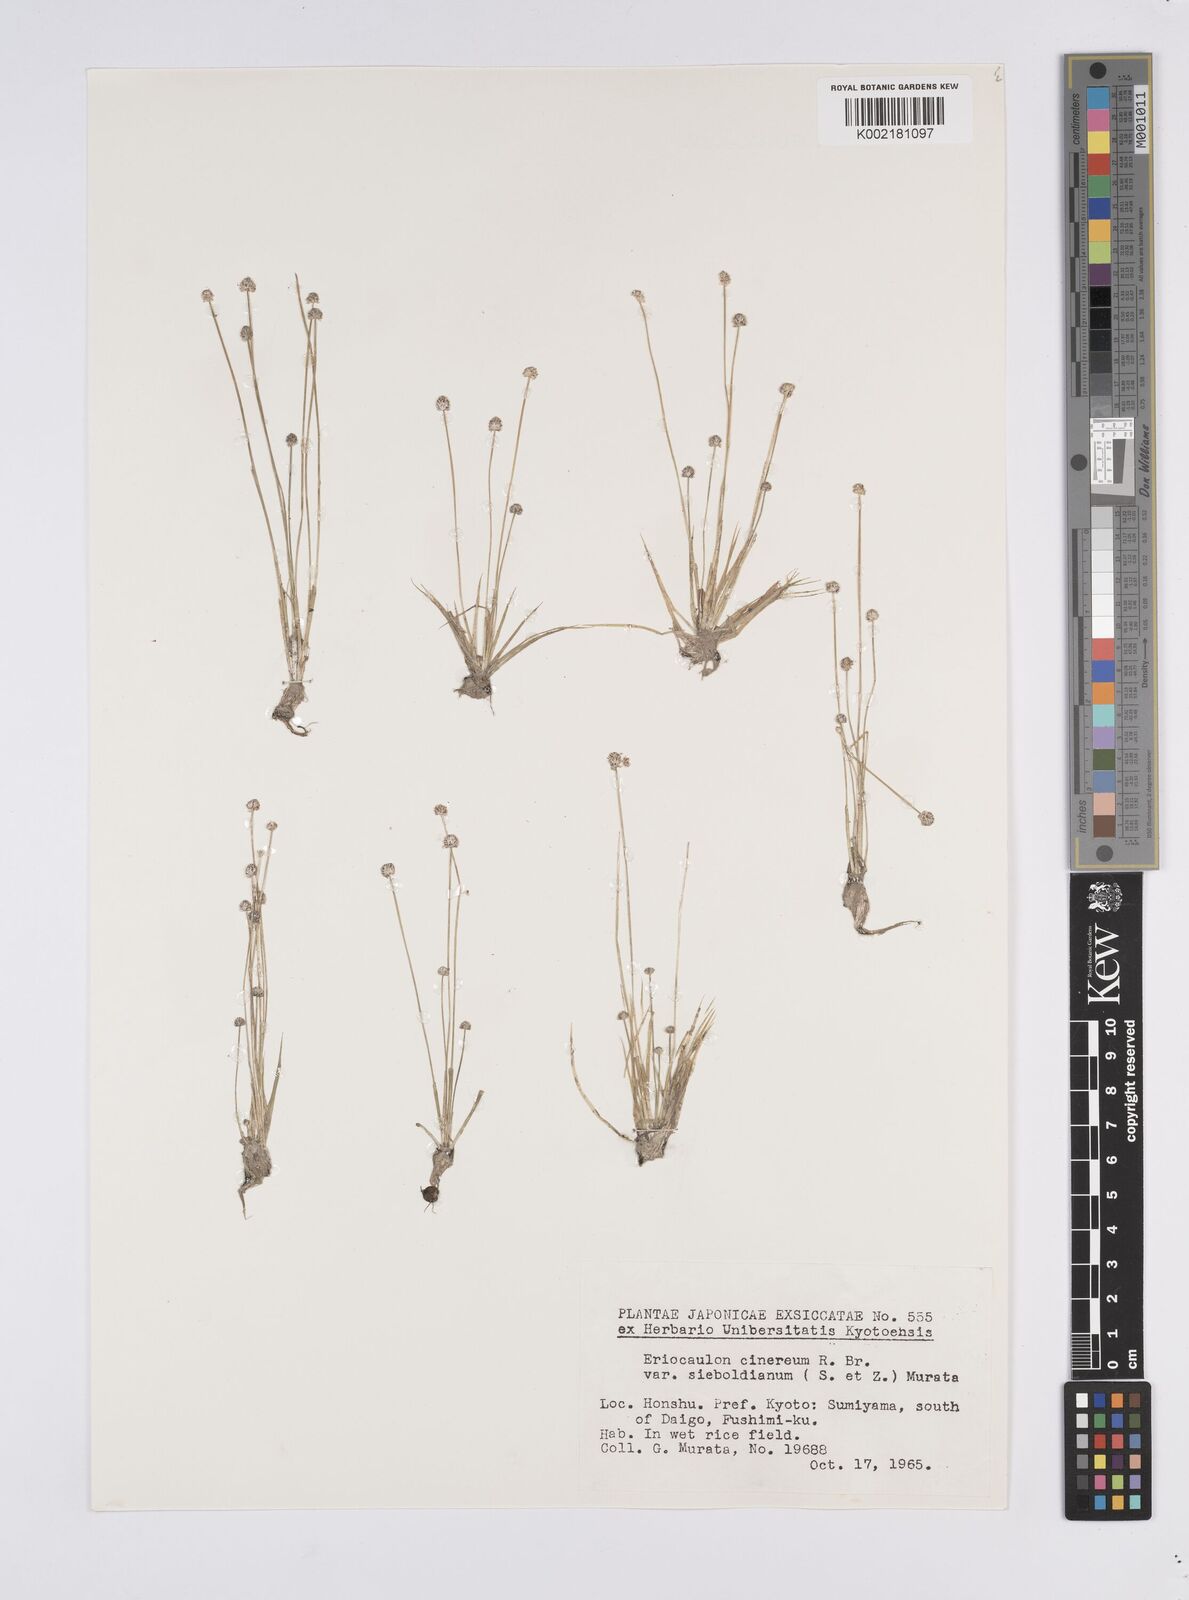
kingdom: Plantae
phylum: Tracheophyta
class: Liliopsida
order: Poales
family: Eriocaulaceae
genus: Eriocaulon
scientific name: Eriocaulon cinereum
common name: Ashy pipewort
